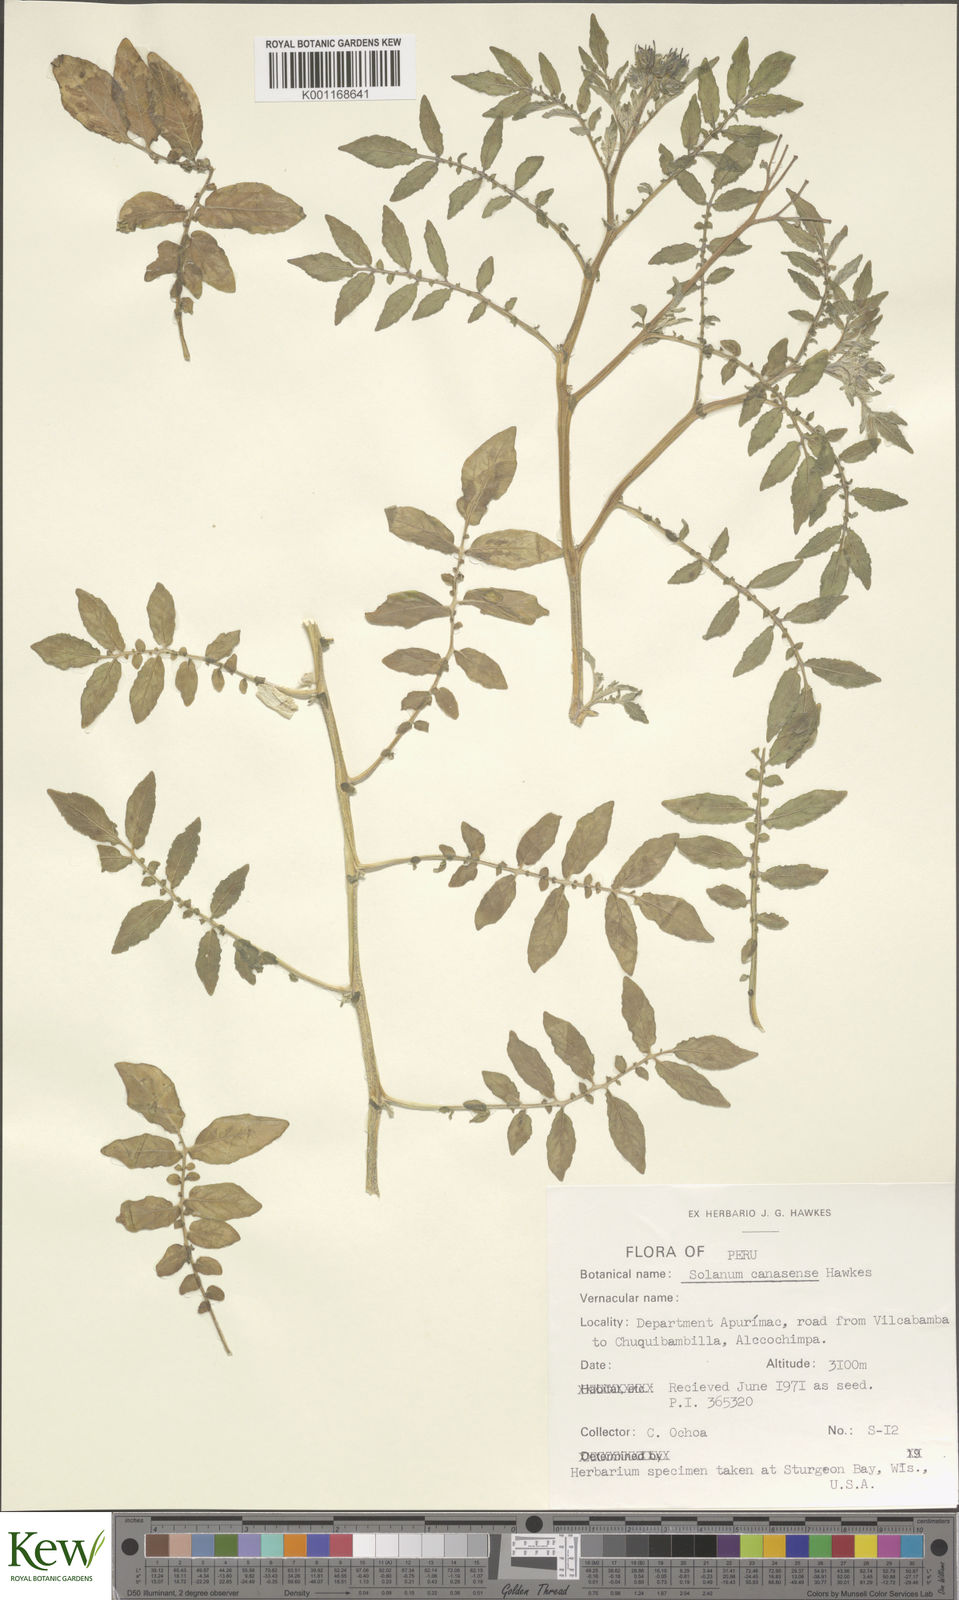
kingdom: Plantae
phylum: Tracheophyta
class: Magnoliopsida
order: Solanales
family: Solanaceae
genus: Solanum
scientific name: Solanum candolleanum
